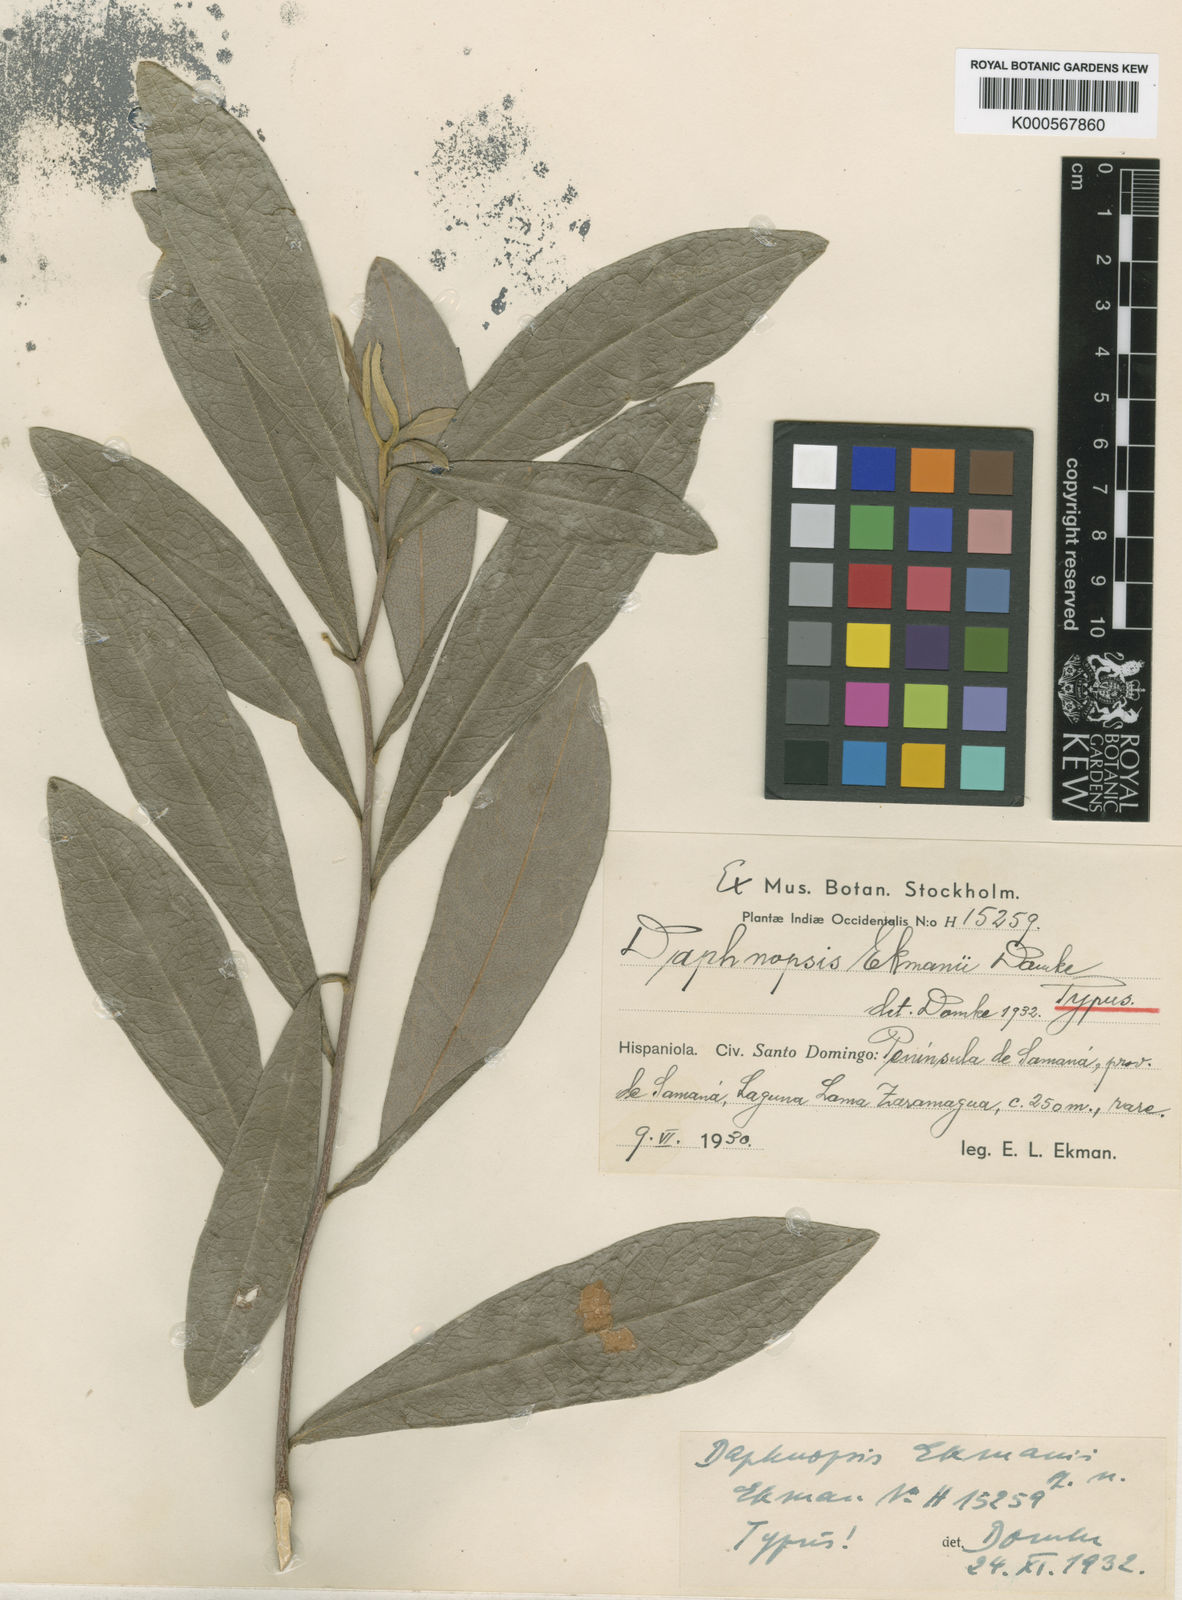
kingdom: Plantae
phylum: Tracheophyta
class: Magnoliopsida
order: Malvales
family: Thymelaeaceae
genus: Daphnopsis
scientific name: Daphnopsis ekmanii
